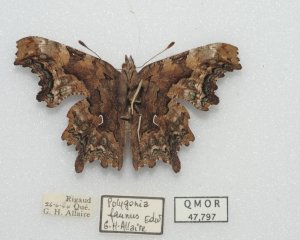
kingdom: Animalia
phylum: Arthropoda
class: Insecta
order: Lepidoptera
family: Nymphalidae
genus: Polygonia
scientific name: Polygonia faunus
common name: Green Comma
